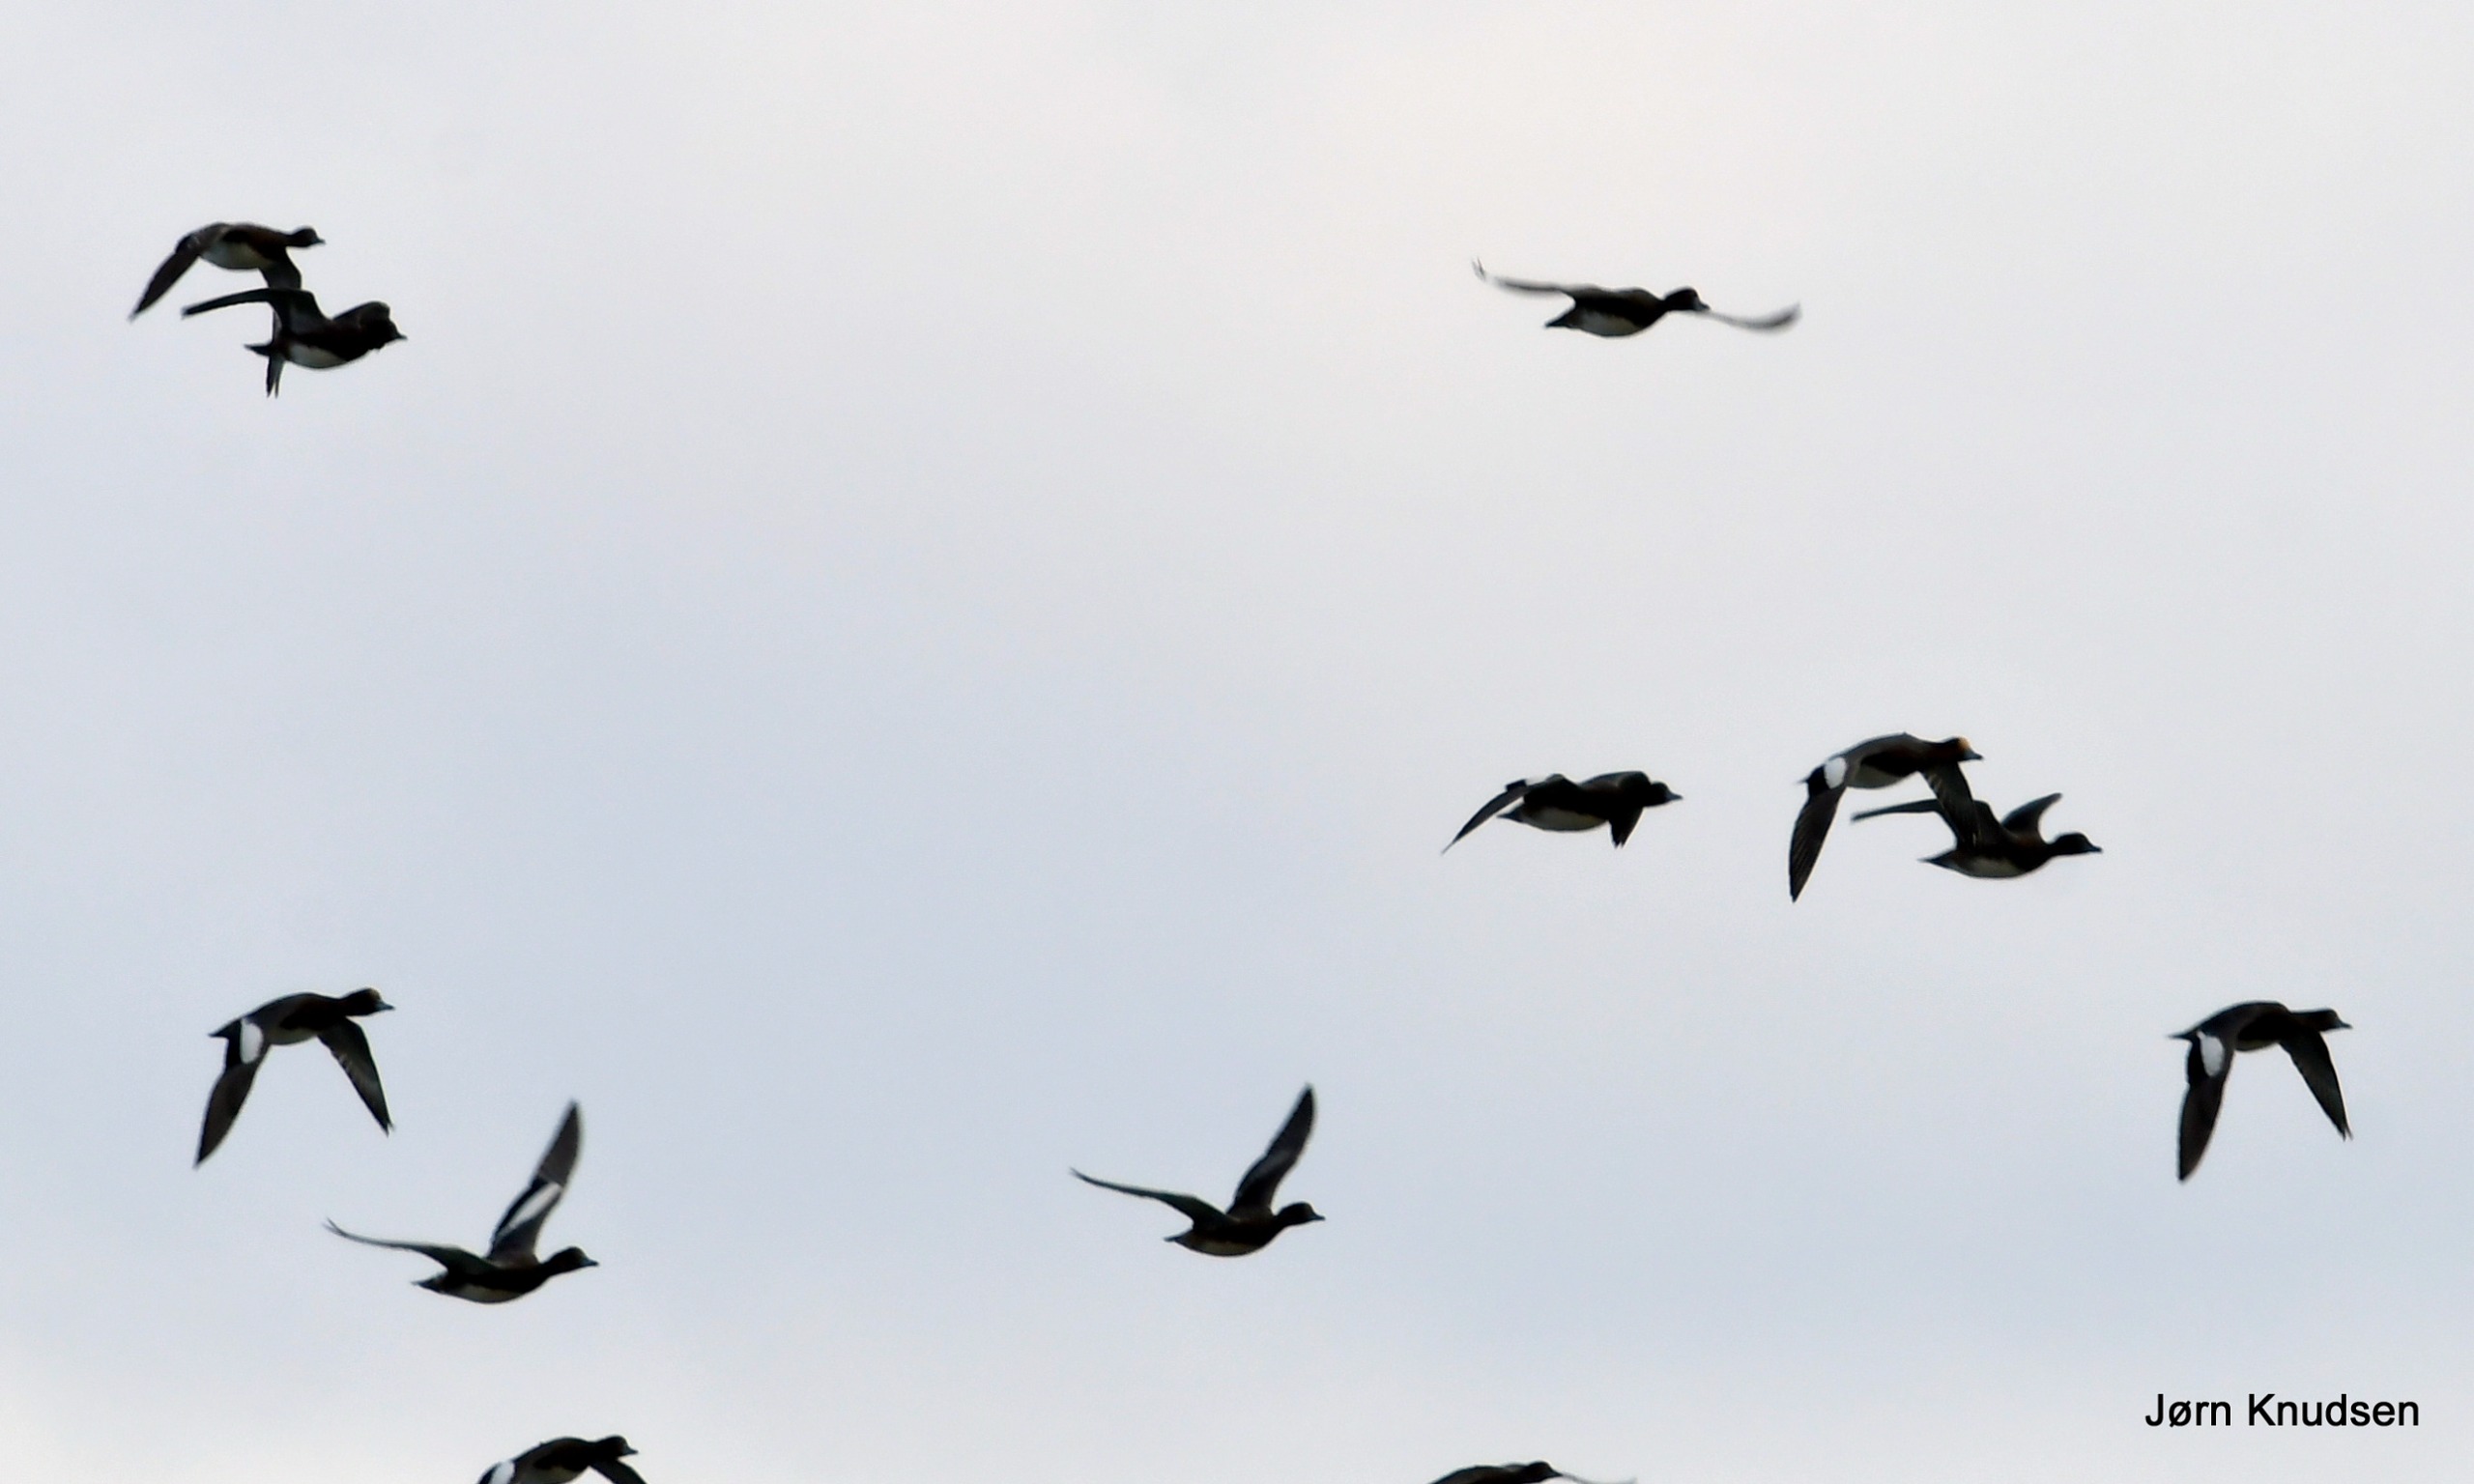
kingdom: Animalia
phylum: Chordata
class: Aves
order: Anseriformes
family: Anatidae
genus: Mareca
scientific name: Mareca penelope
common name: Pibeand
